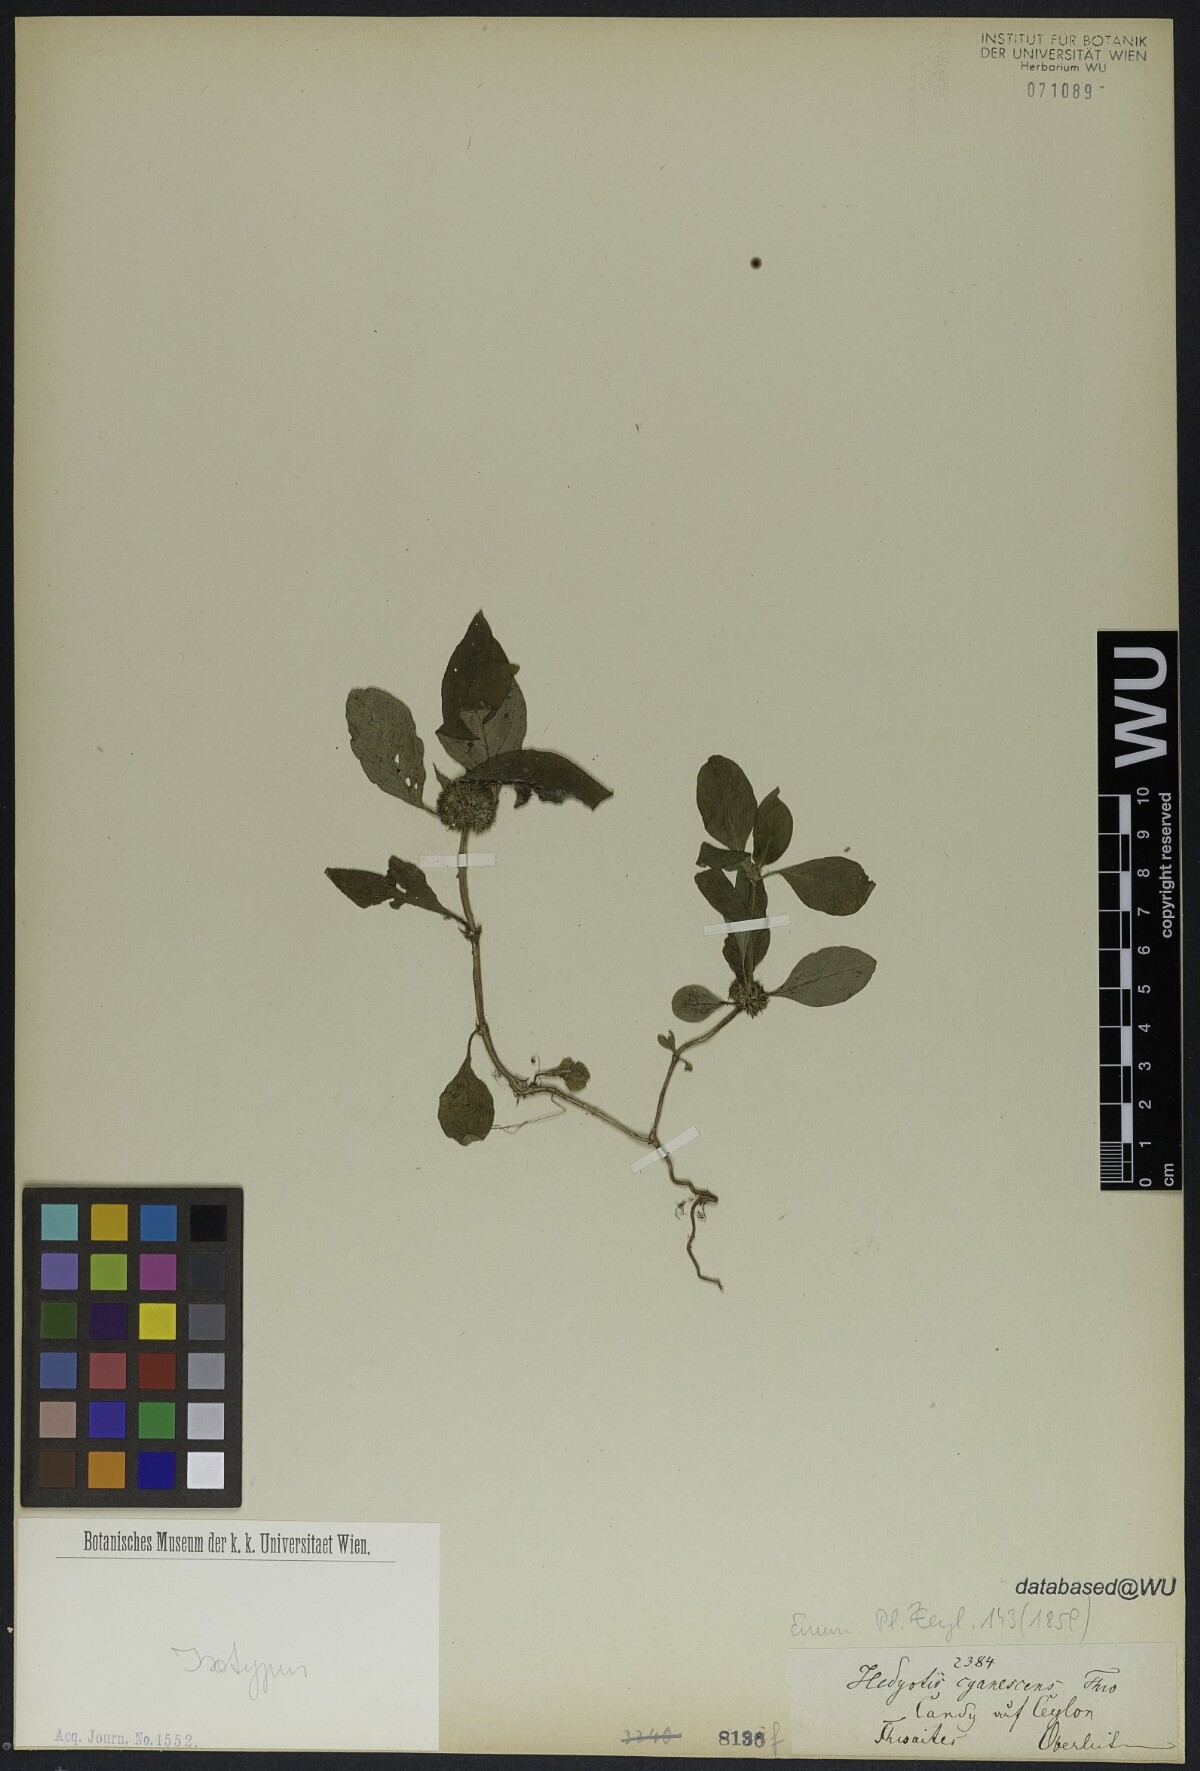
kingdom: Plantae
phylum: Tracheophyta
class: Magnoliopsida
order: Gentianales
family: Rubiaceae
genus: Hedyotis
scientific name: Hedyotis cyanescens
